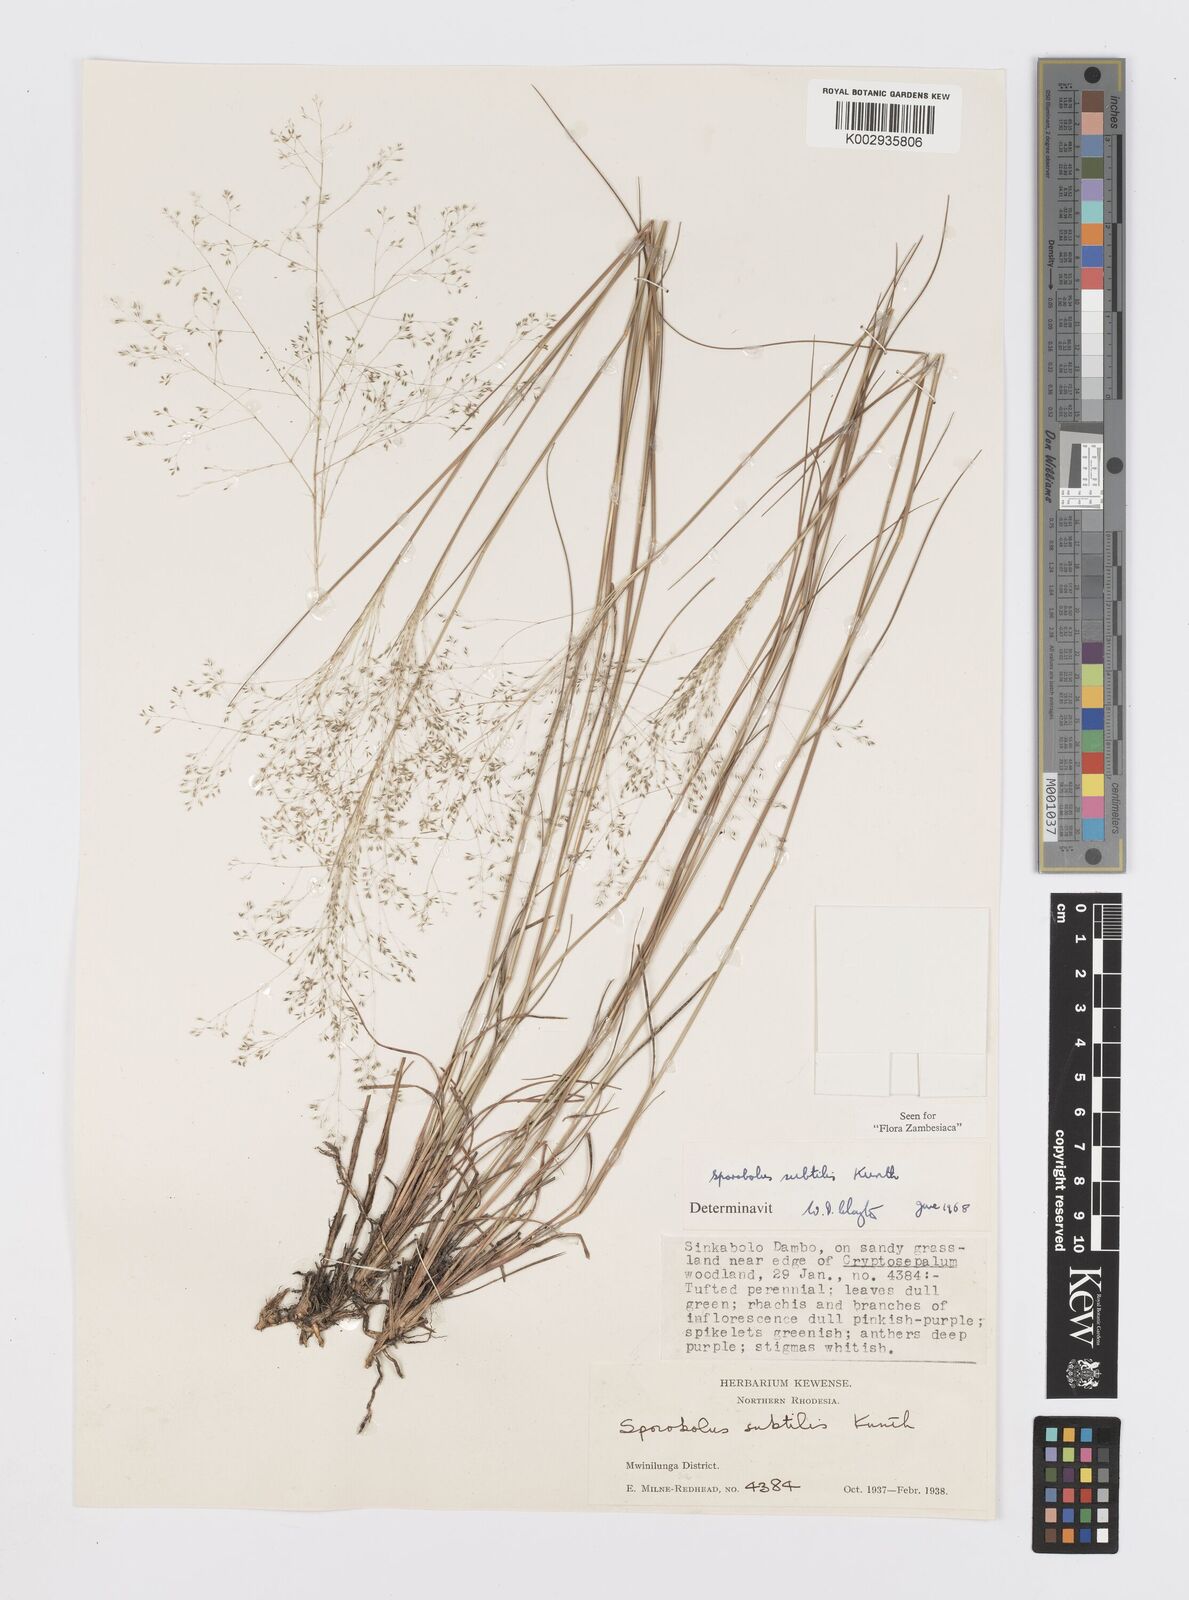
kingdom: Plantae
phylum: Tracheophyta
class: Liliopsida
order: Poales
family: Poaceae
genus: Sporobolus
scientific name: Sporobolus subtilis
